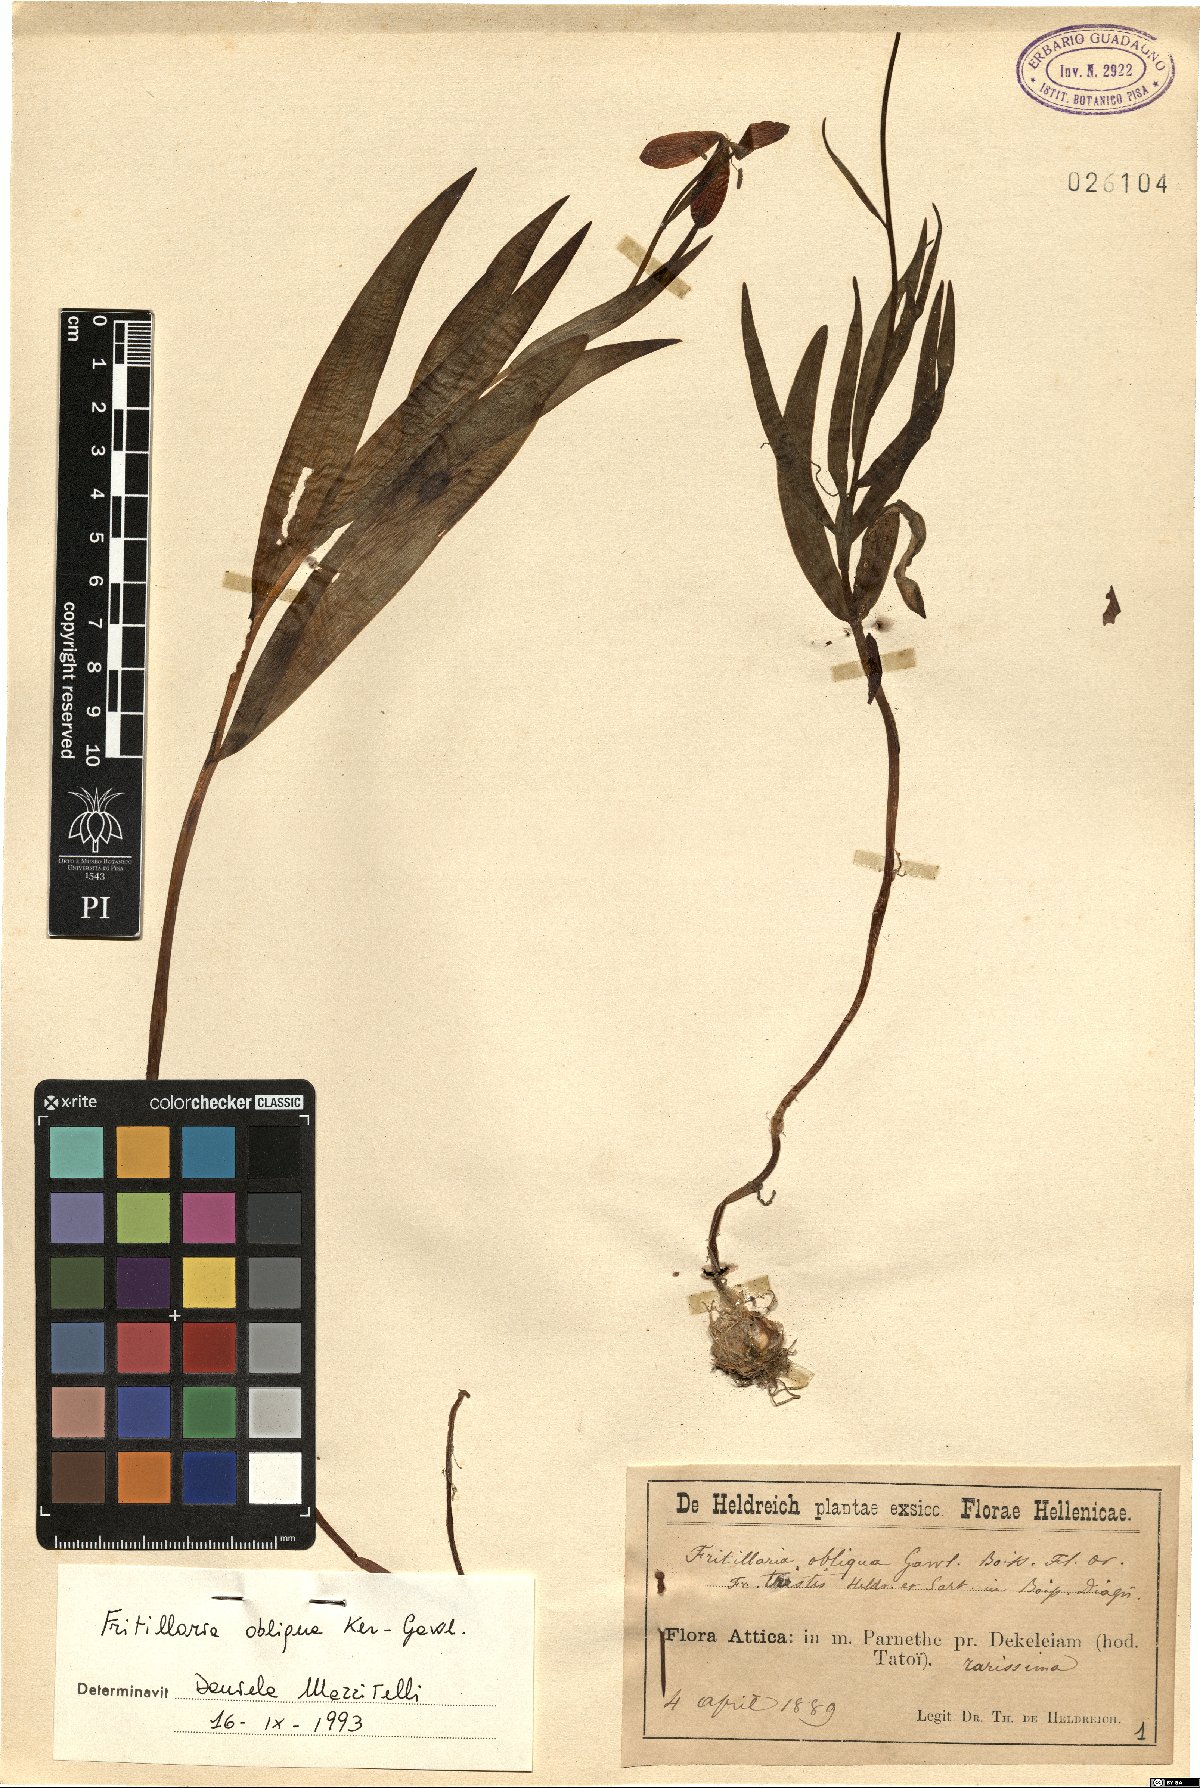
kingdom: Plantae
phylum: Tracheophyta
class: Liliopsida
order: Liliales
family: Liliaceae
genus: Fritillaria
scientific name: Fritillaria obliqua
